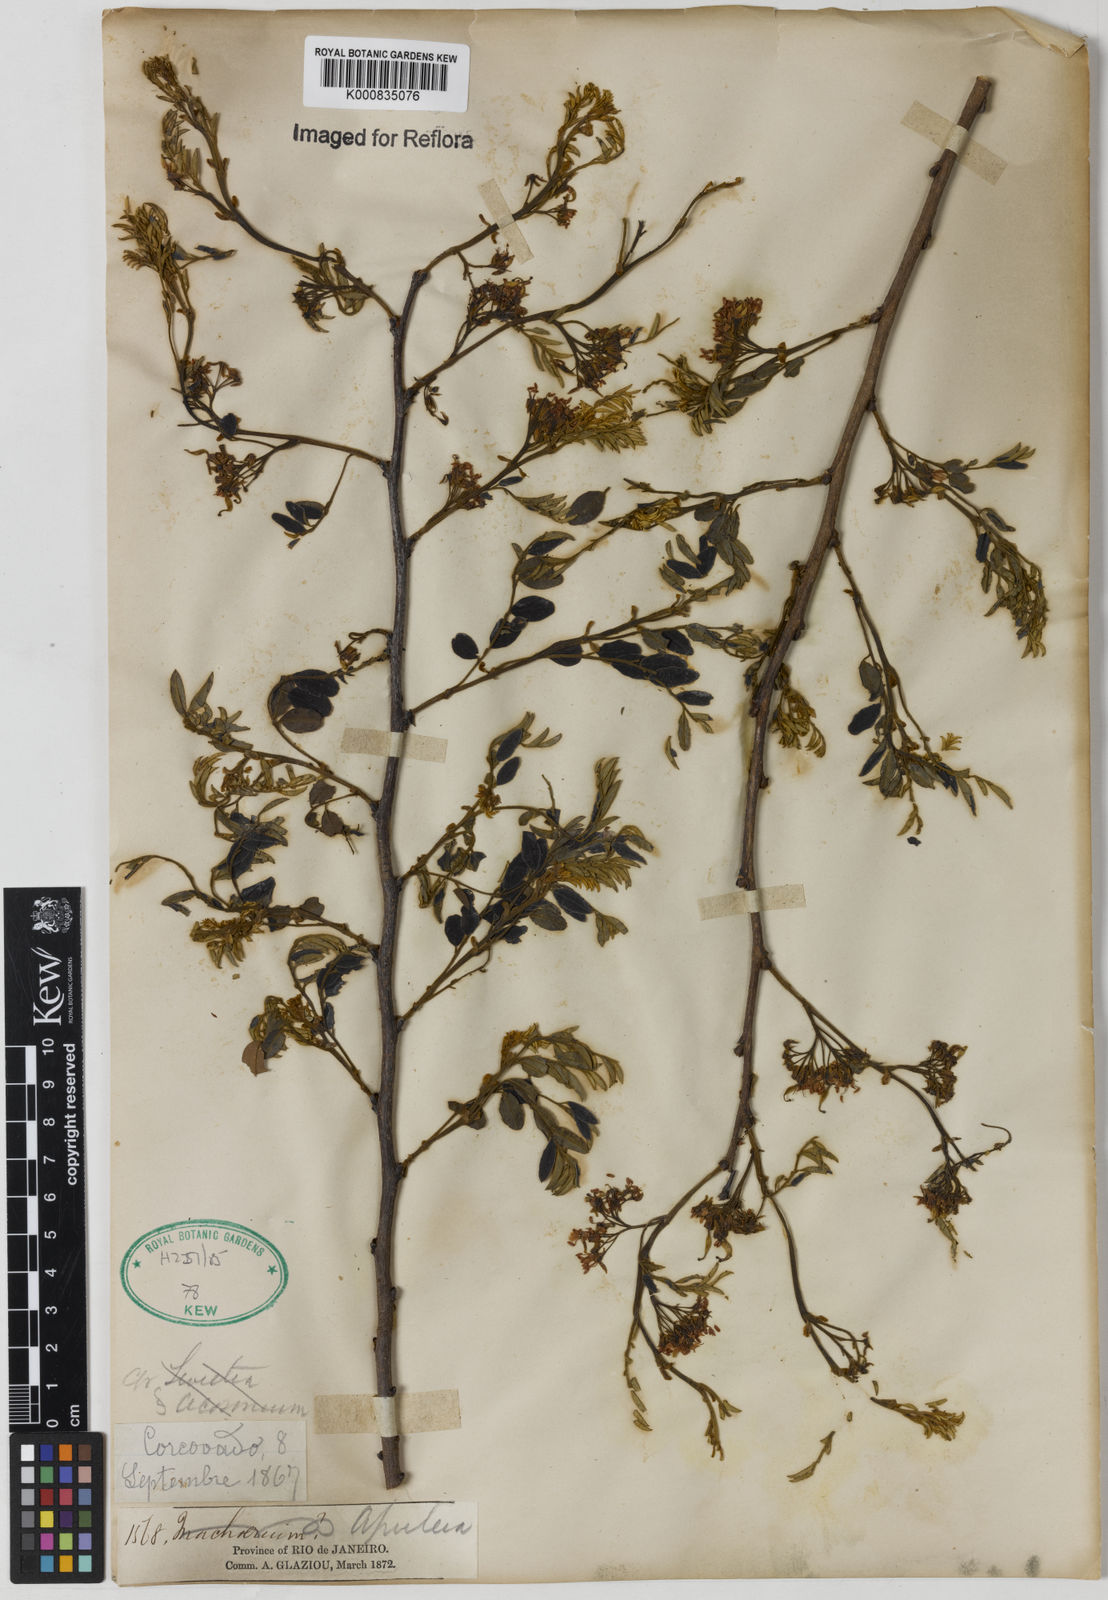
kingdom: Plantae
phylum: Tracheophyta
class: Magnoliopsida
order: Asterales
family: Asteraceae
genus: Berkheya
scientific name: Berkheya
